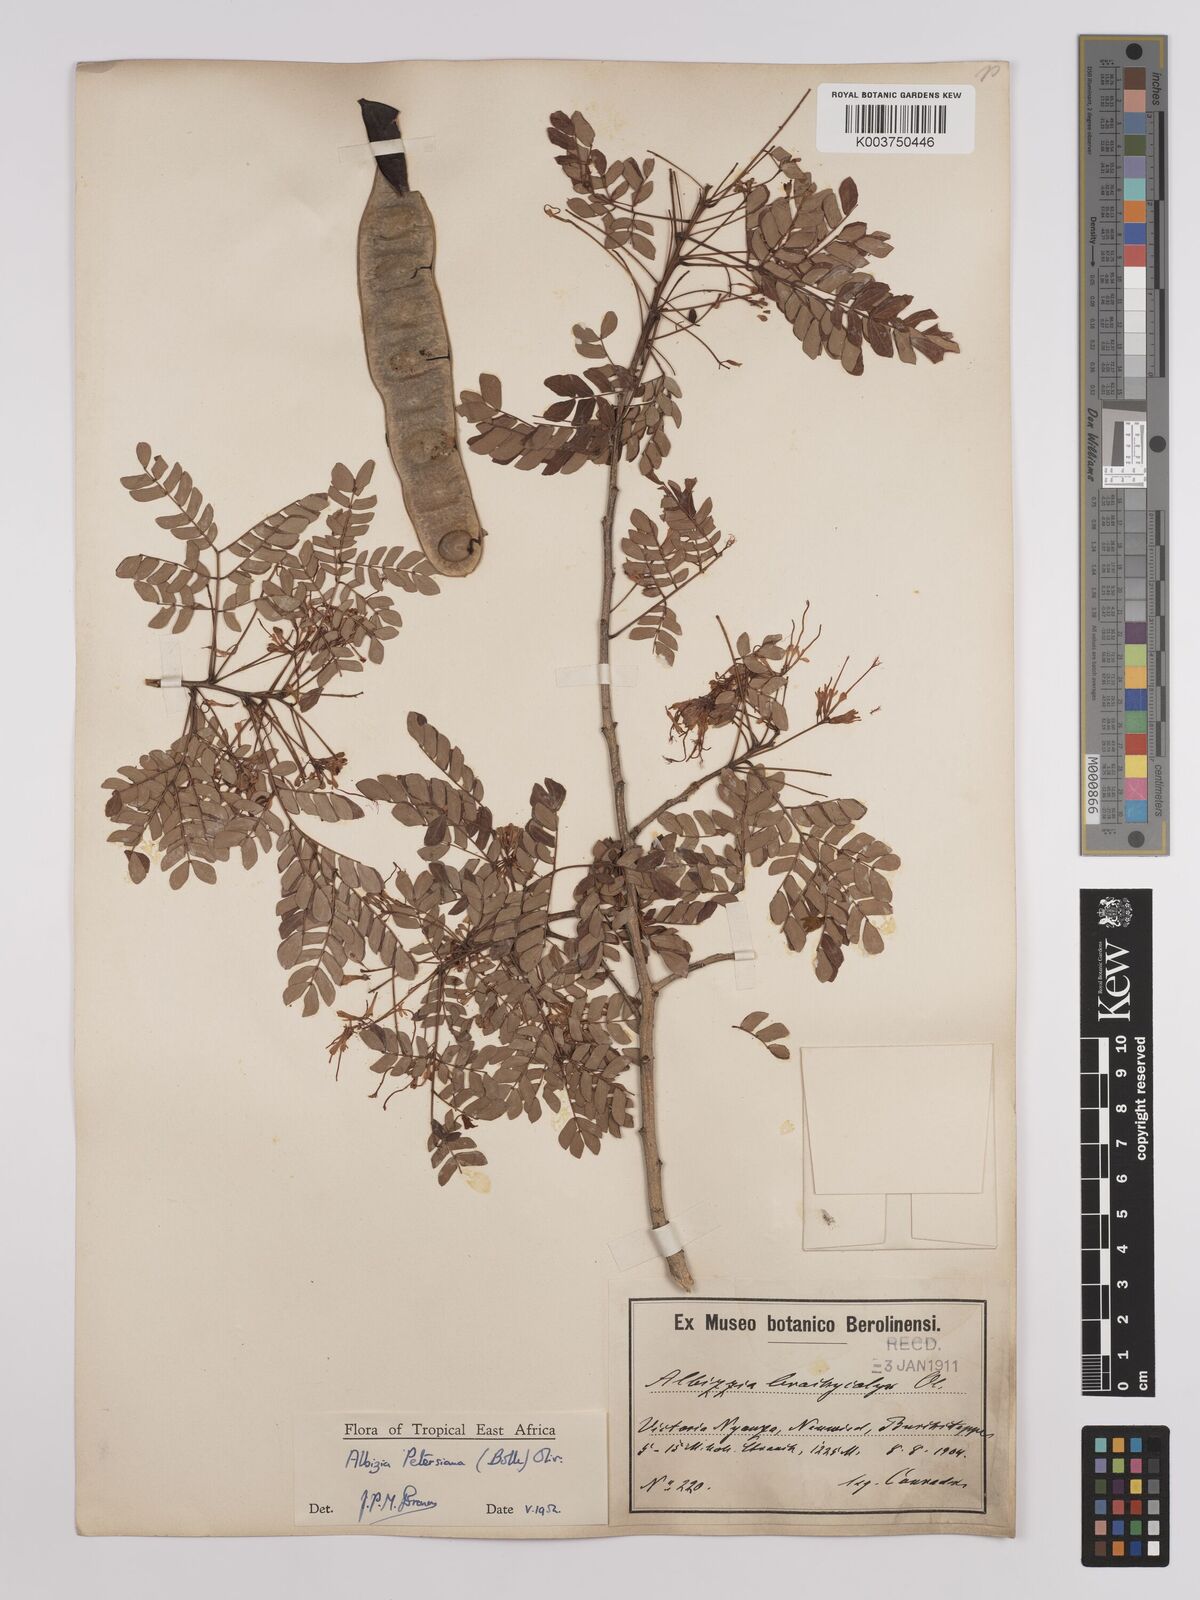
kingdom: Plantae
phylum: Tracheophyta
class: Magnoliopsida
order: Fabales
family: Fabaceae
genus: Albizia
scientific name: Albizia petersiana
